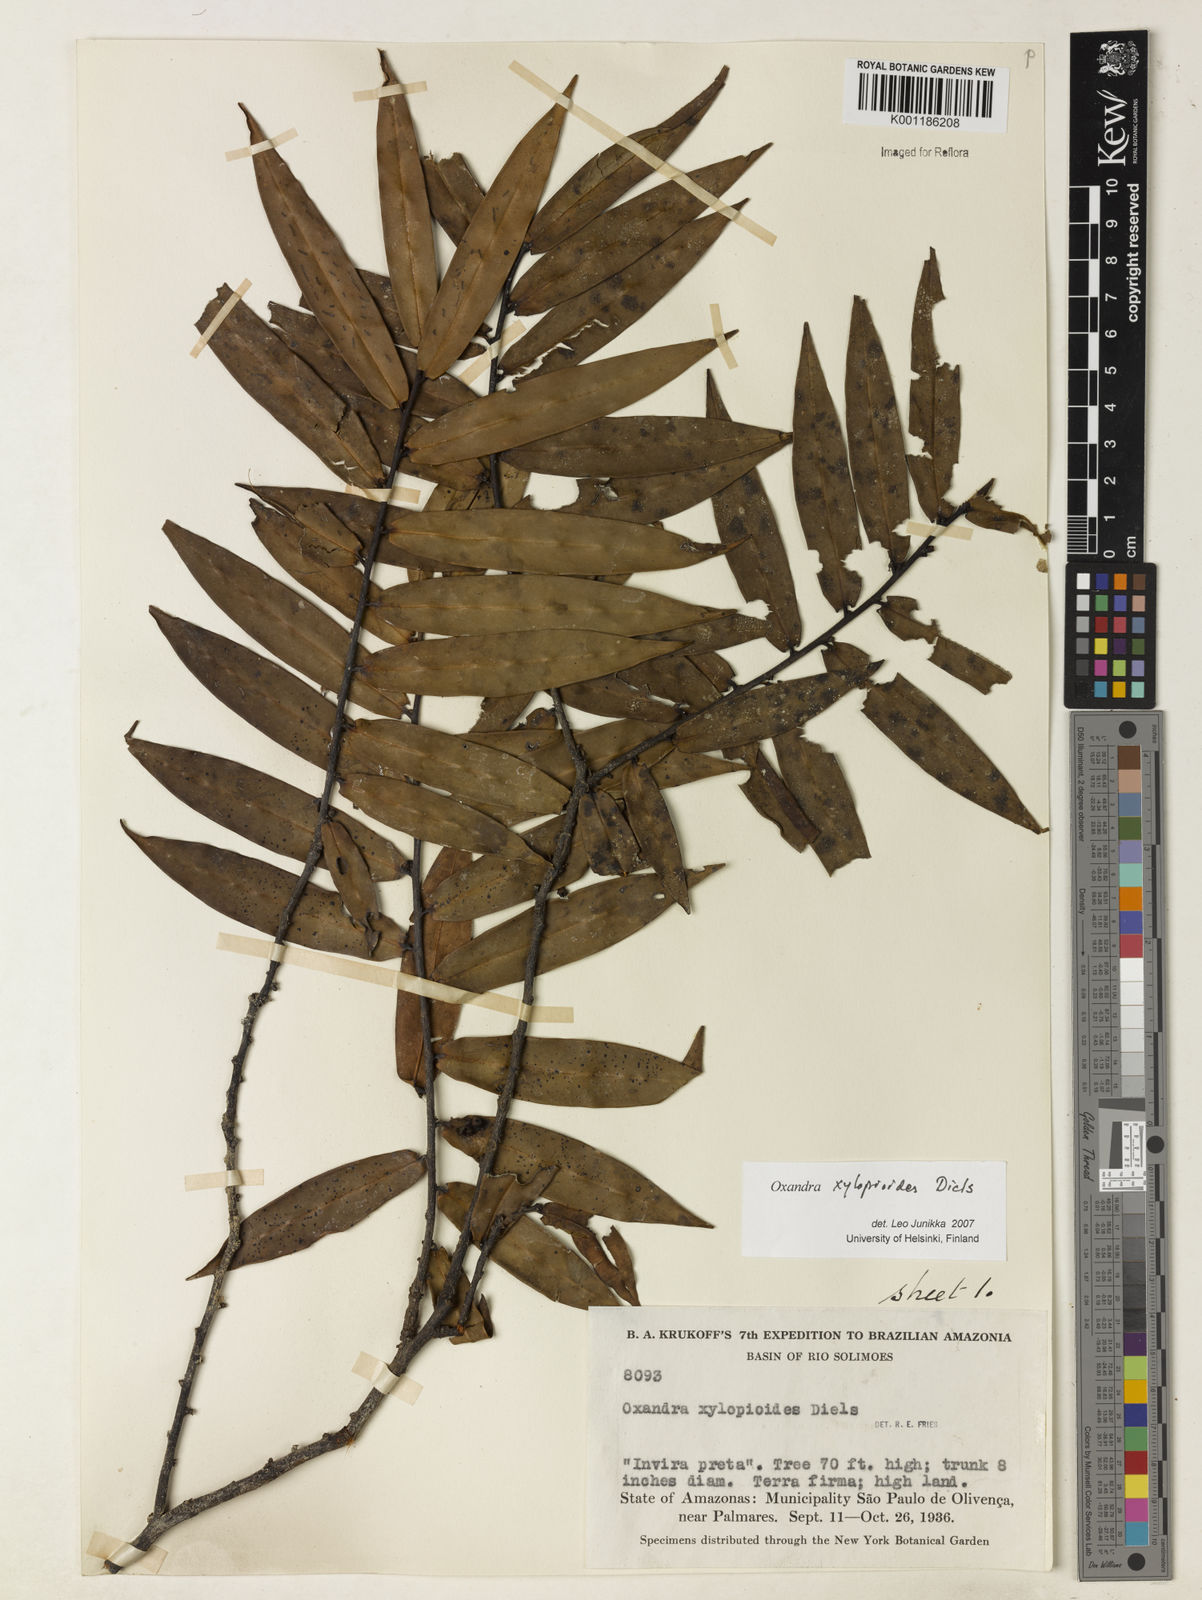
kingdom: Plantae
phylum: Tracheophyta
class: Magnoliopsida
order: Magnoliales
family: Annonaceae
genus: Oxandra
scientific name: Oxandra xylopioides
